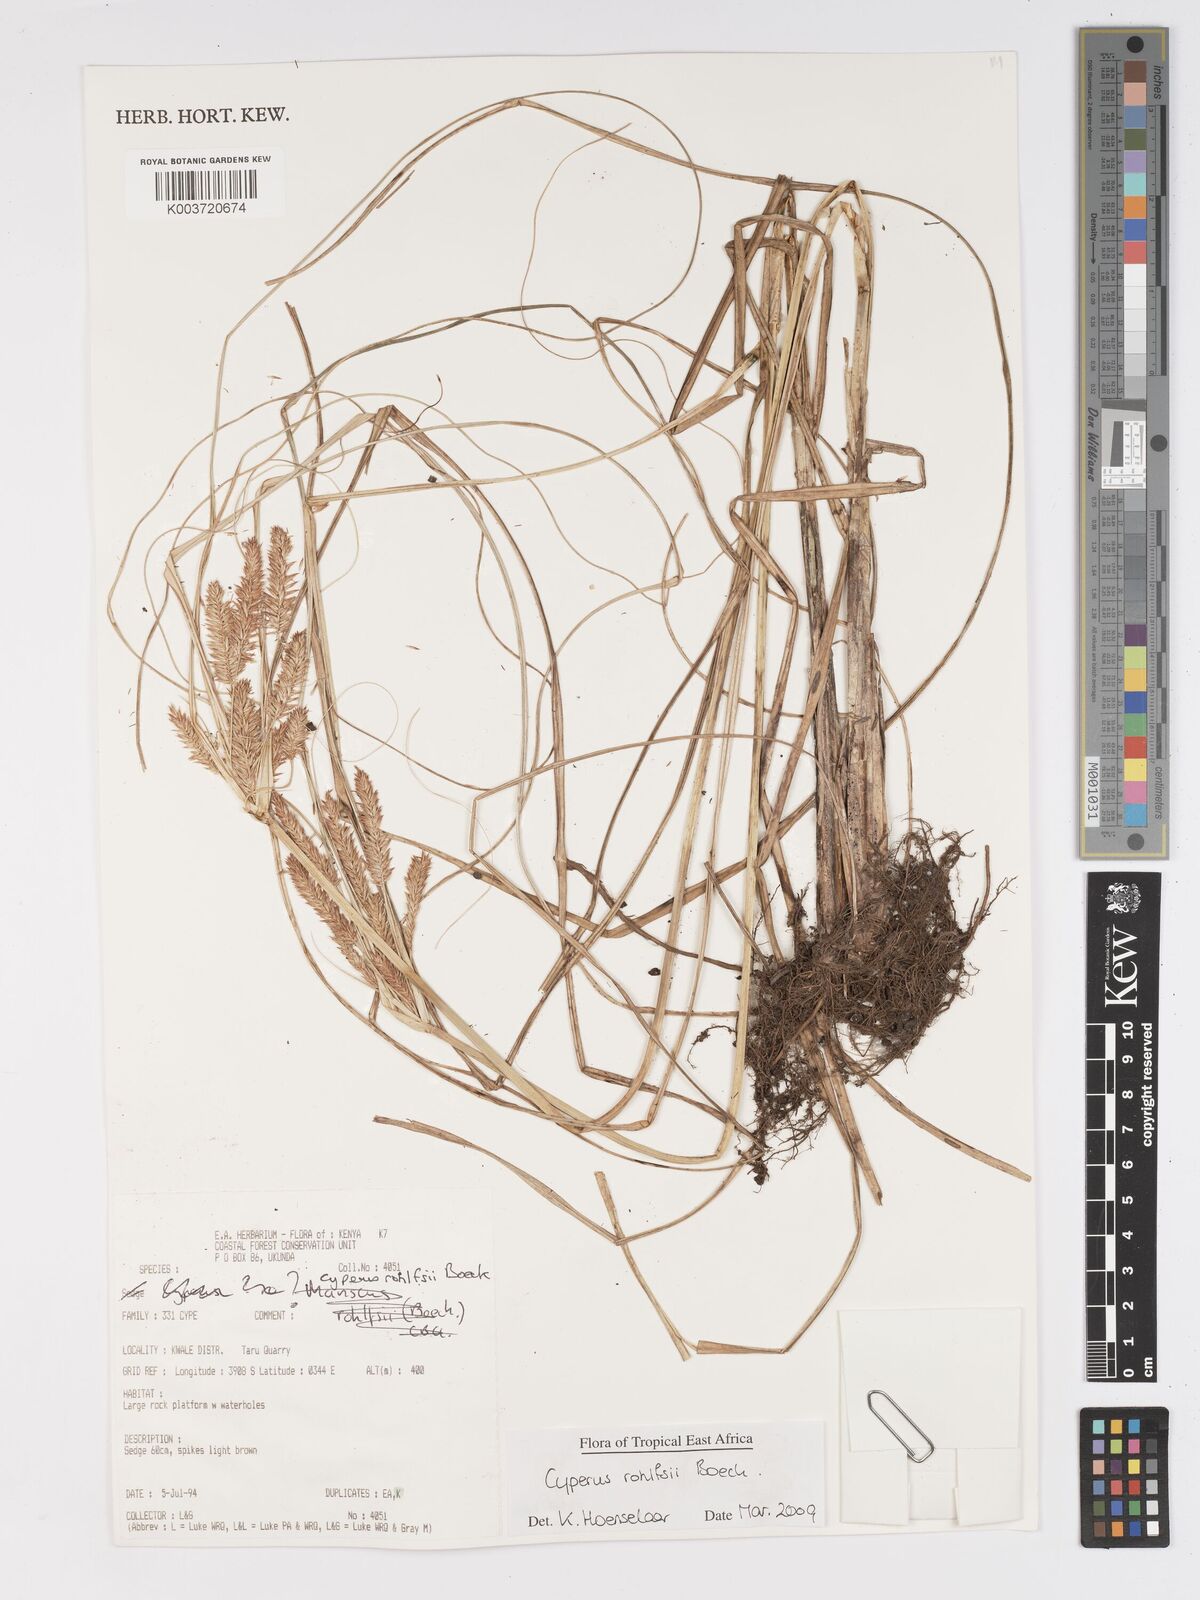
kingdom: Plantae
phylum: Tracheophyta
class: Liliopsida
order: Poales
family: Cyperaceae
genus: Cyperus
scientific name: Cyperus rohlfsii
